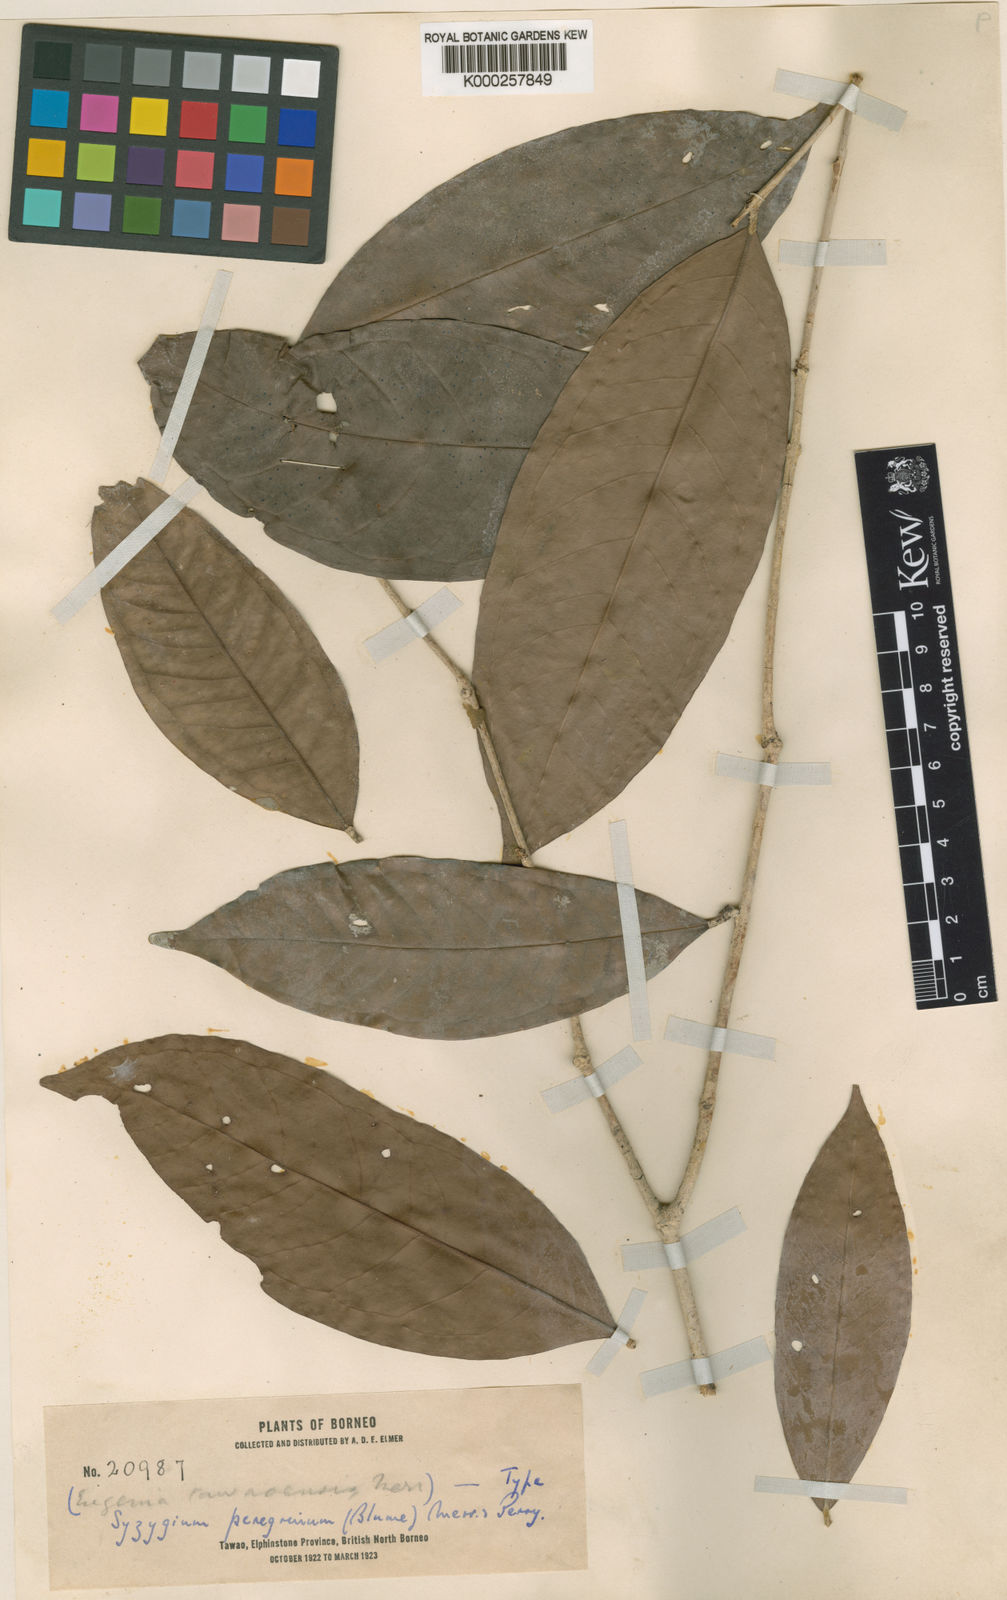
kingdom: Plantae
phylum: Tracheophyta
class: Magnoliopsida
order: Myrtales
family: Myrtaceae
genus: Syzygium
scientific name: Syzygium peregrinum
